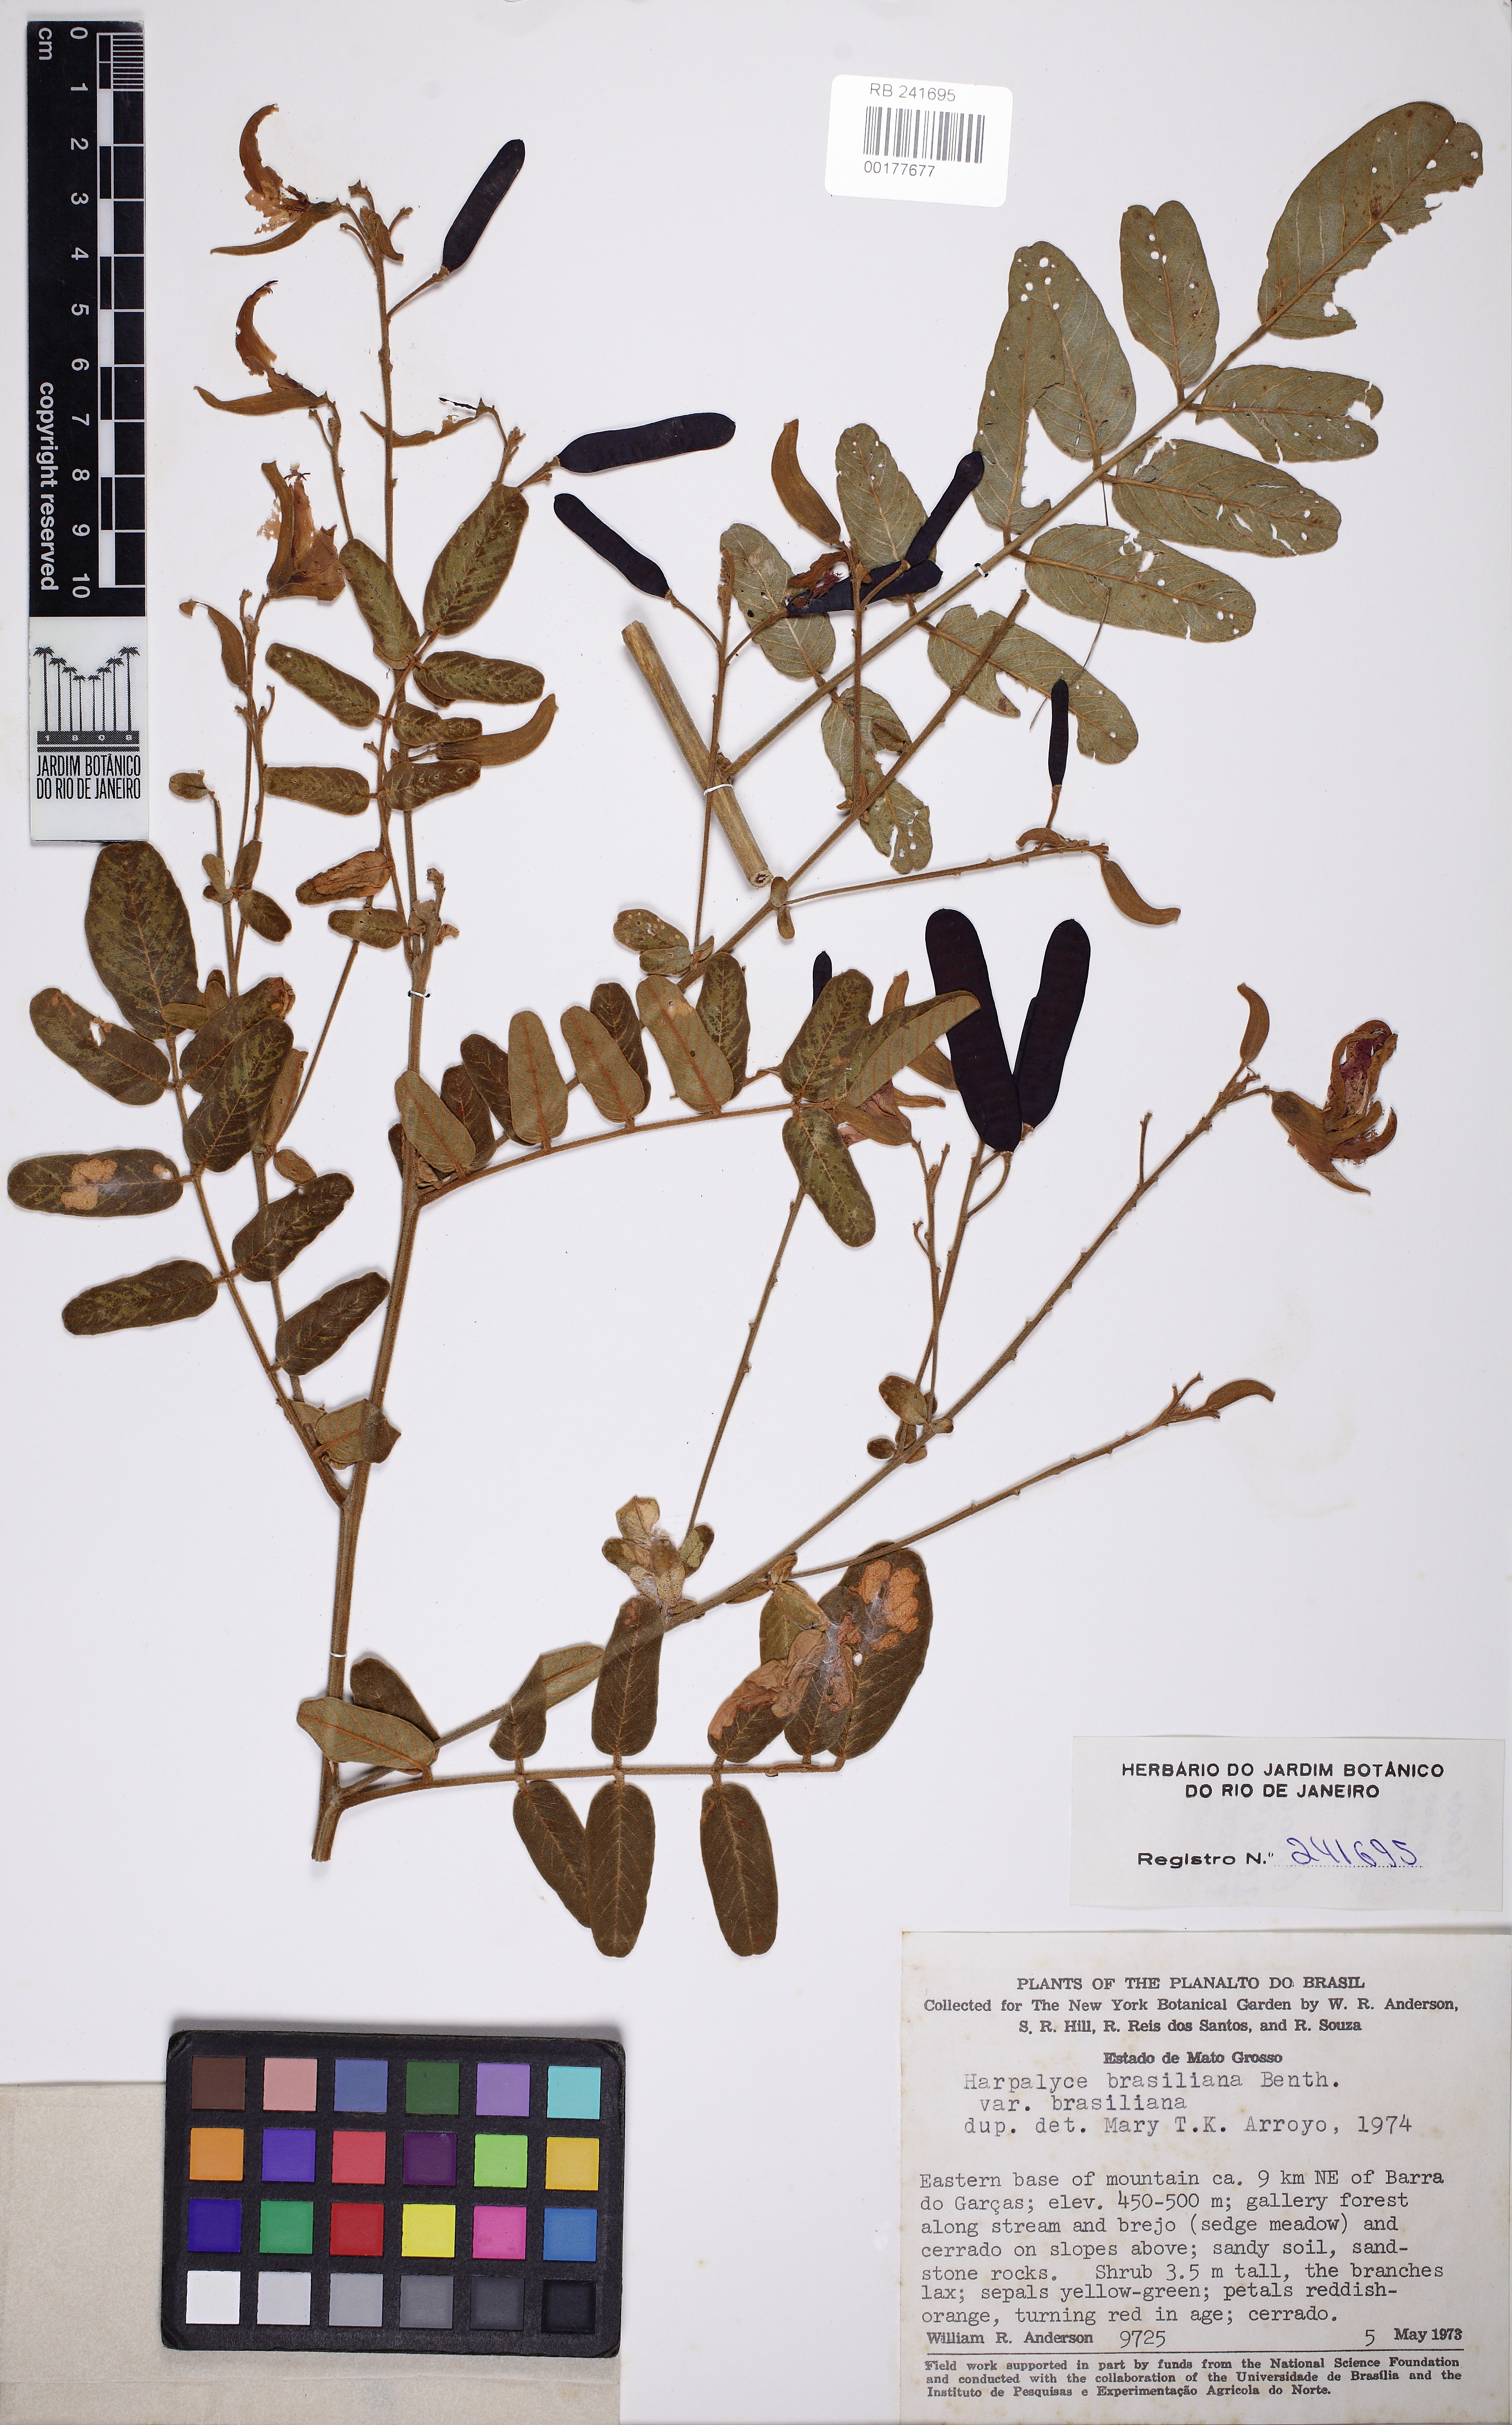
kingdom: Plantae
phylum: Tracheophyta
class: Magnoliopsida
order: Fabales
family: Fabaceae
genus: Harpalyce
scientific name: Harpalyce brasiliana
